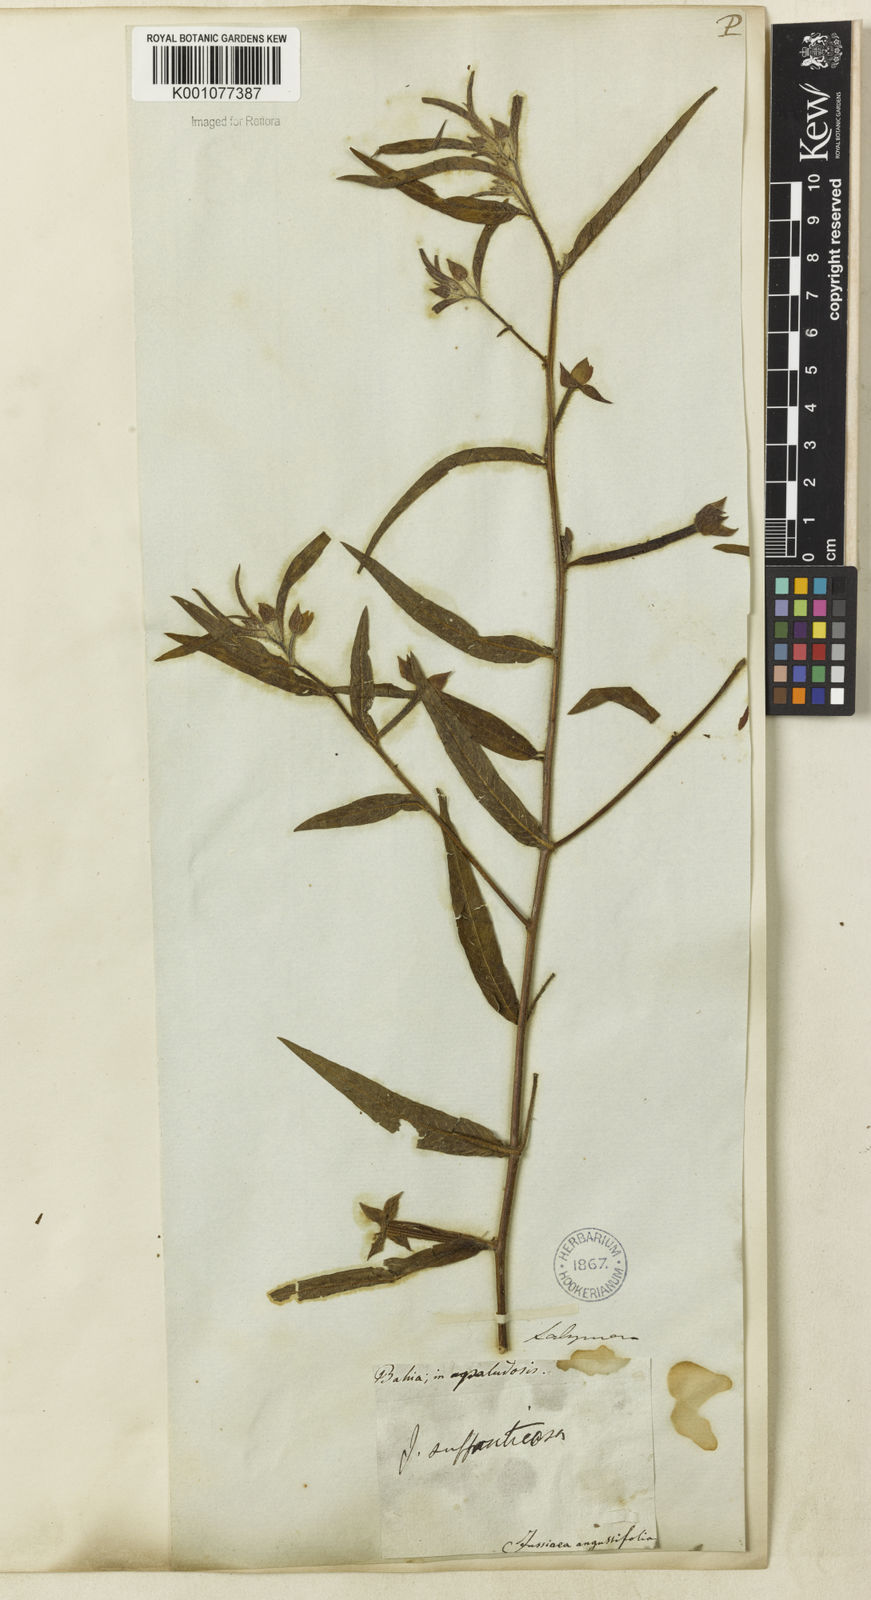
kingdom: Plantae
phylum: Tracheophyta
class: Magnoliopsida
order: Myrtales
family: Onagraceae
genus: Ludwigia
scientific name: Ludwigia octovalvis
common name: Water-primrose
